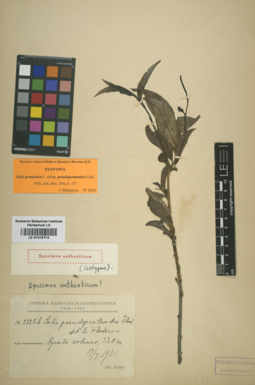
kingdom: Plantae
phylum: Tracheophyta
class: Magnoliopsida
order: Malpighiales
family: Salicaceae
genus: Salix
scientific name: Salix pseudopentandra
